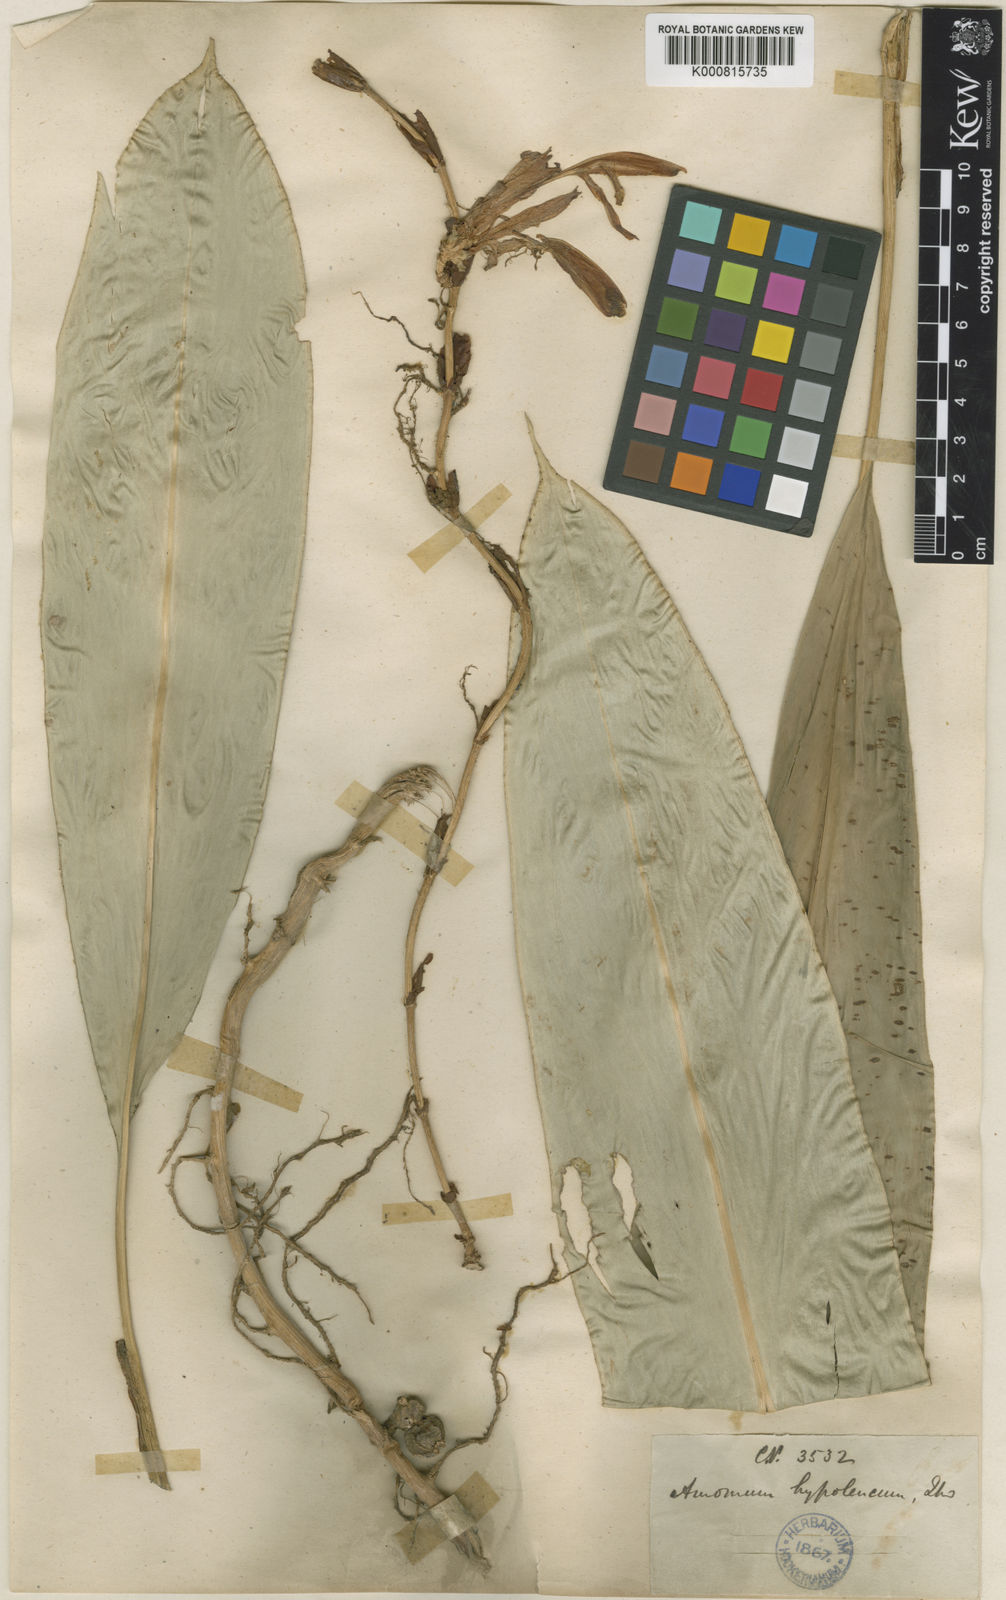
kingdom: Plantae
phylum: Tracheophyta
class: Liliopsida
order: Zingiberales
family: Zingiberaceae
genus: Amomum
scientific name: Amomum hypoleucum
